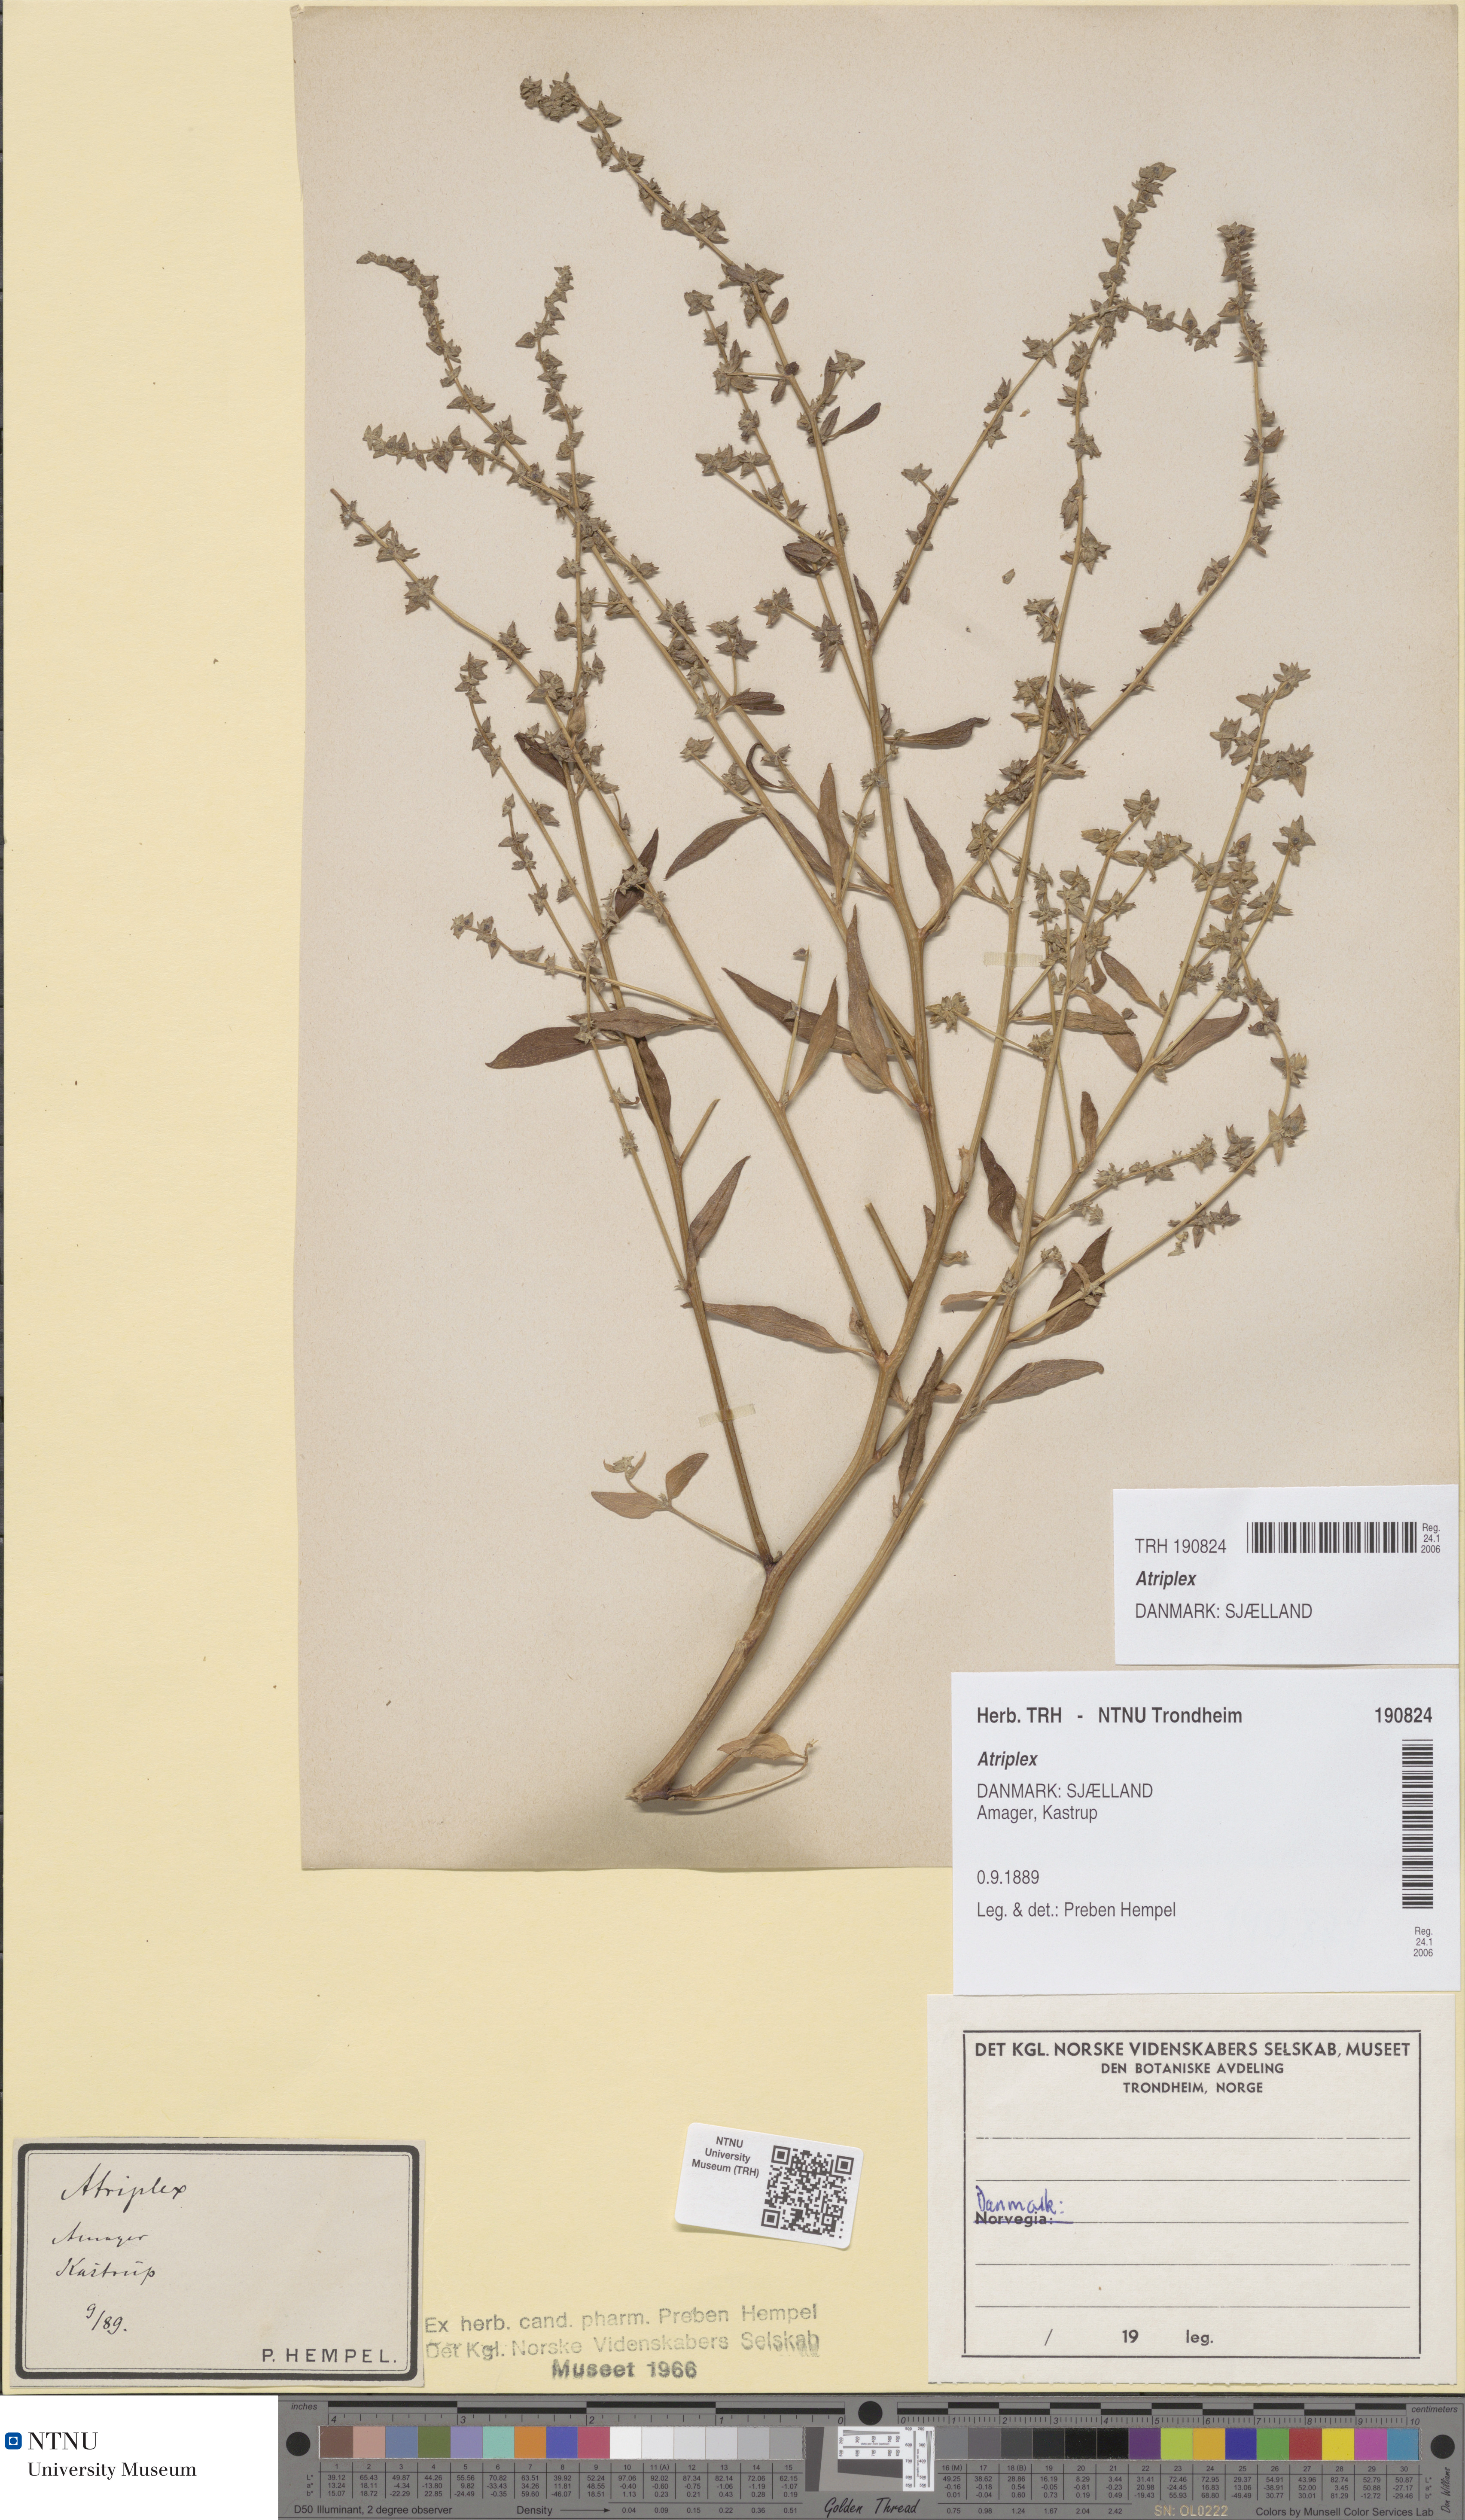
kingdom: Plantae
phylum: Tracheophyta
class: Magnoliopsida
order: Caryophyllales
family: Amaranthaceae
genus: Atriplex
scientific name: Atriplex
